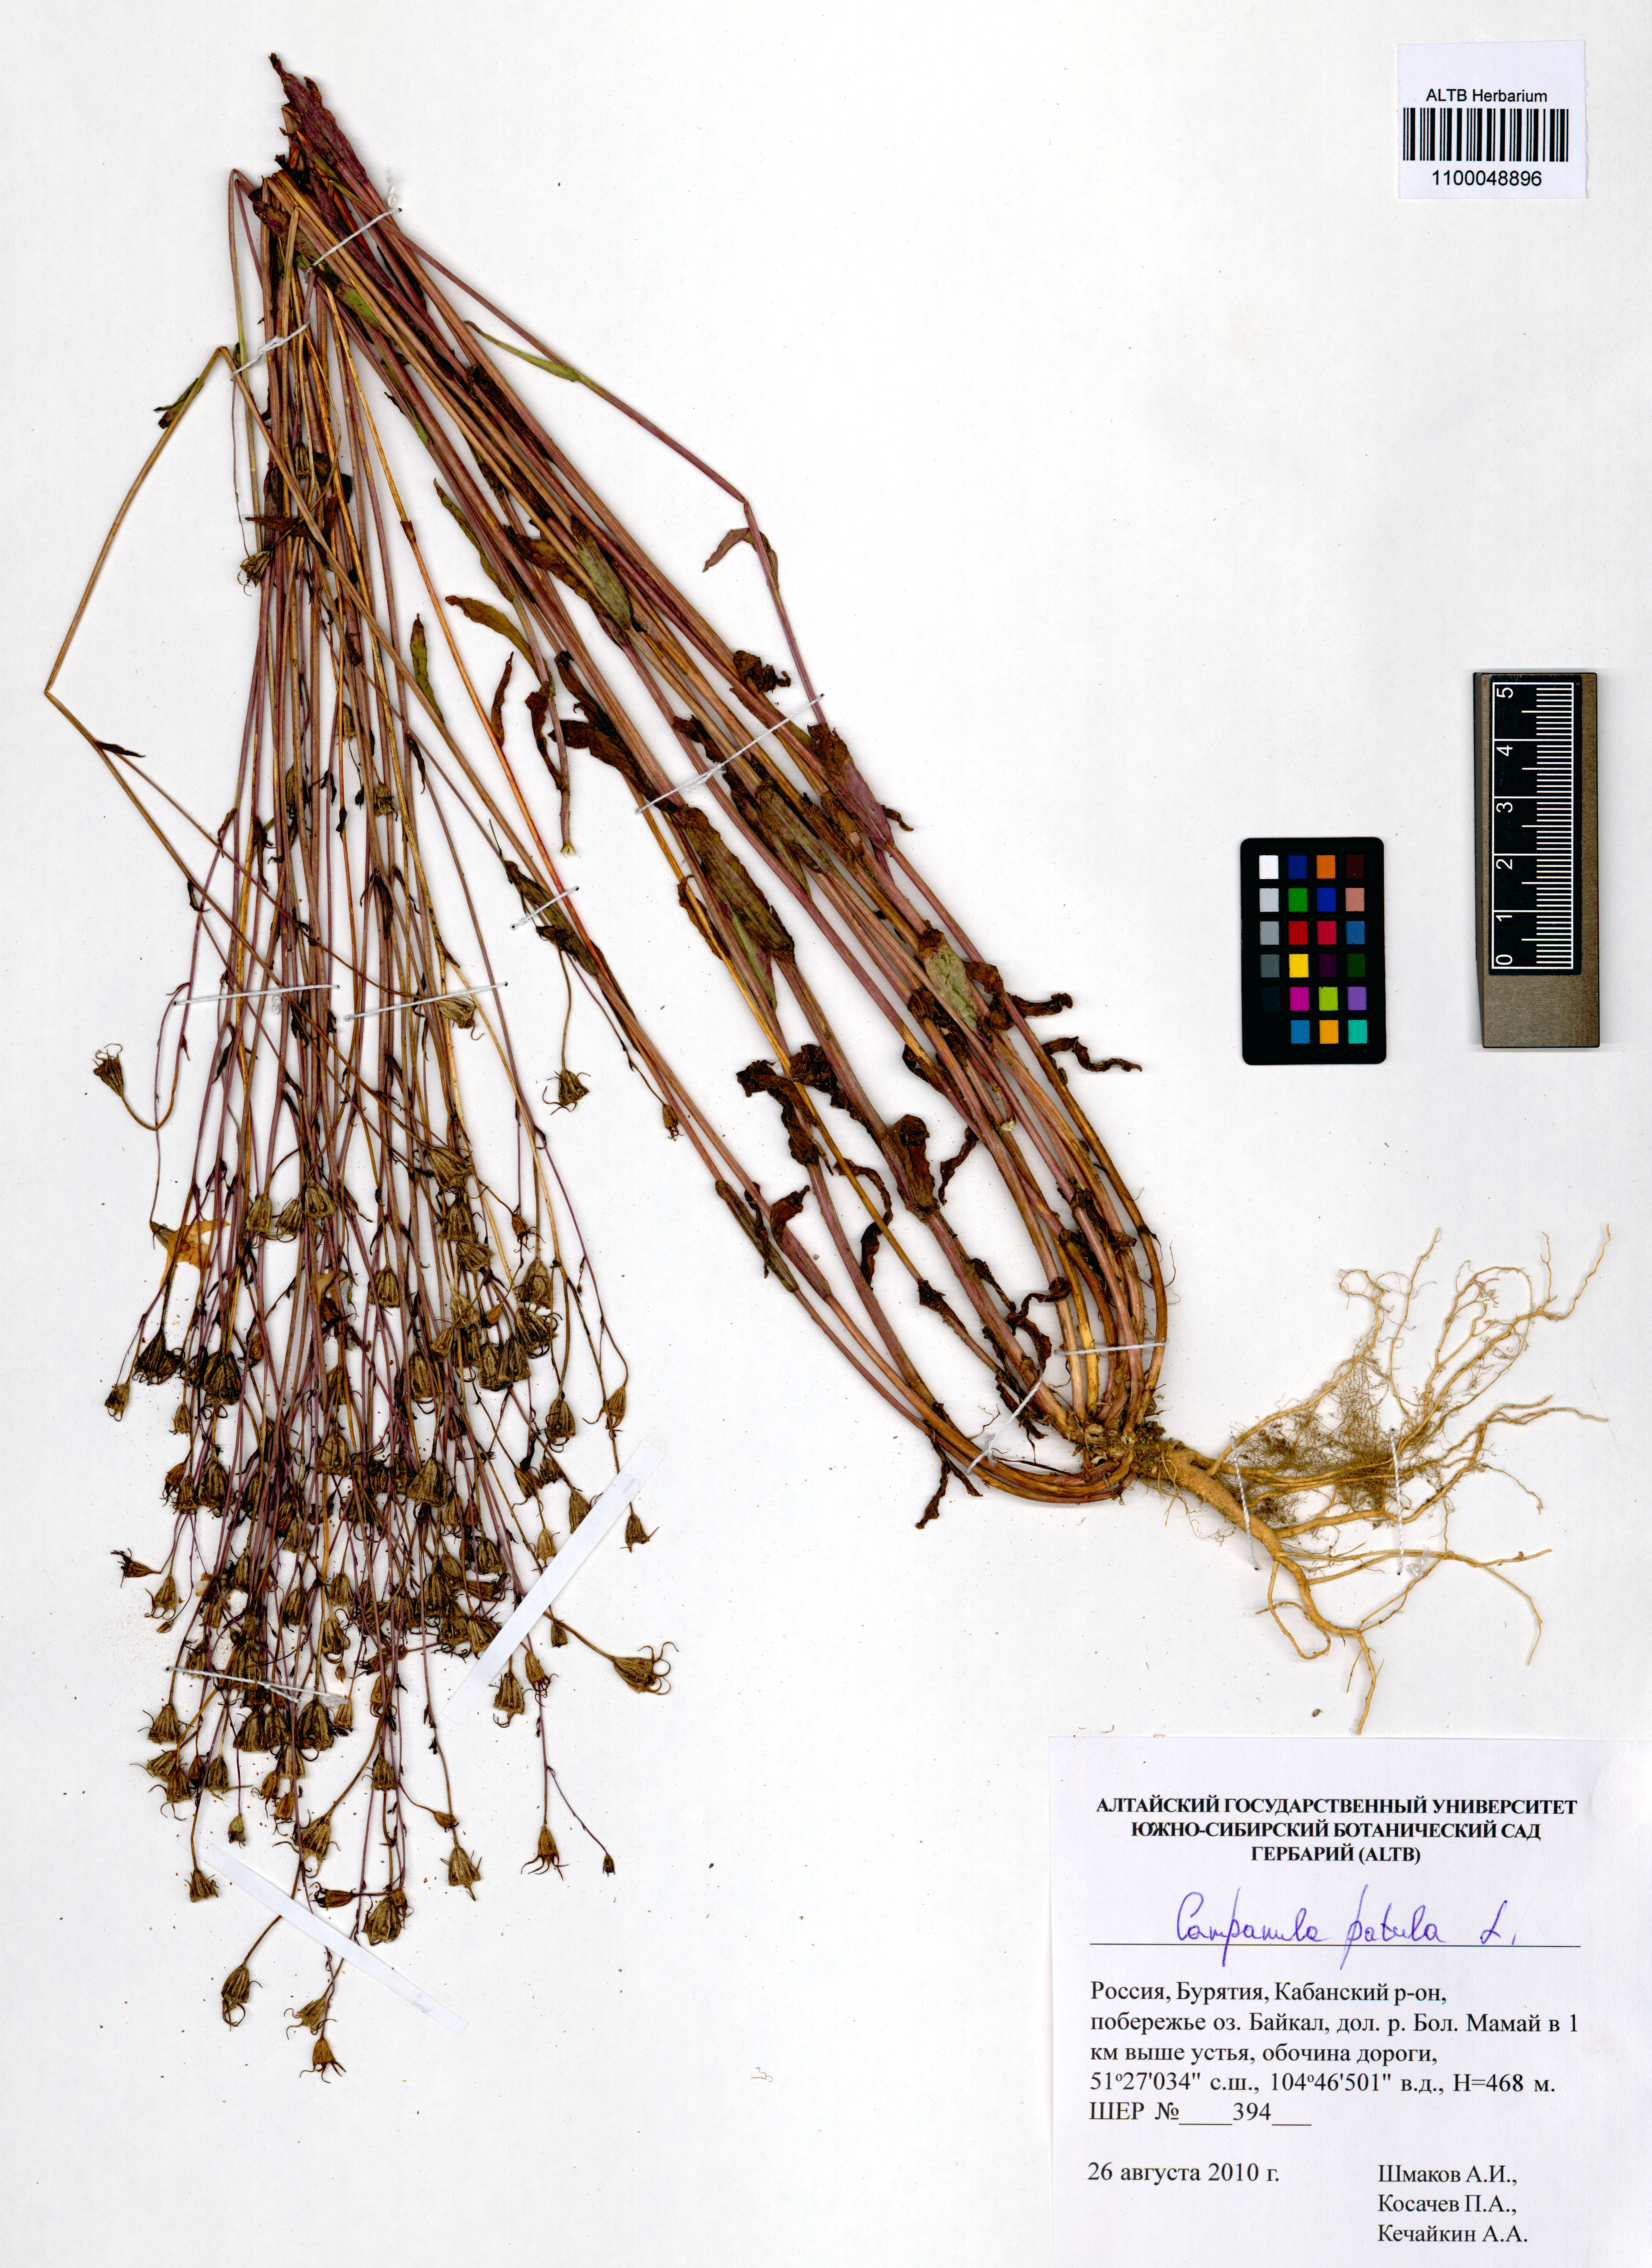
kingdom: Plantae
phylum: Tracheophyta
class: Magnoliopsida
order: Asterales
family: Campanulaceae
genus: Campanula
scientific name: Campanula patula
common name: Spreading bellflower
